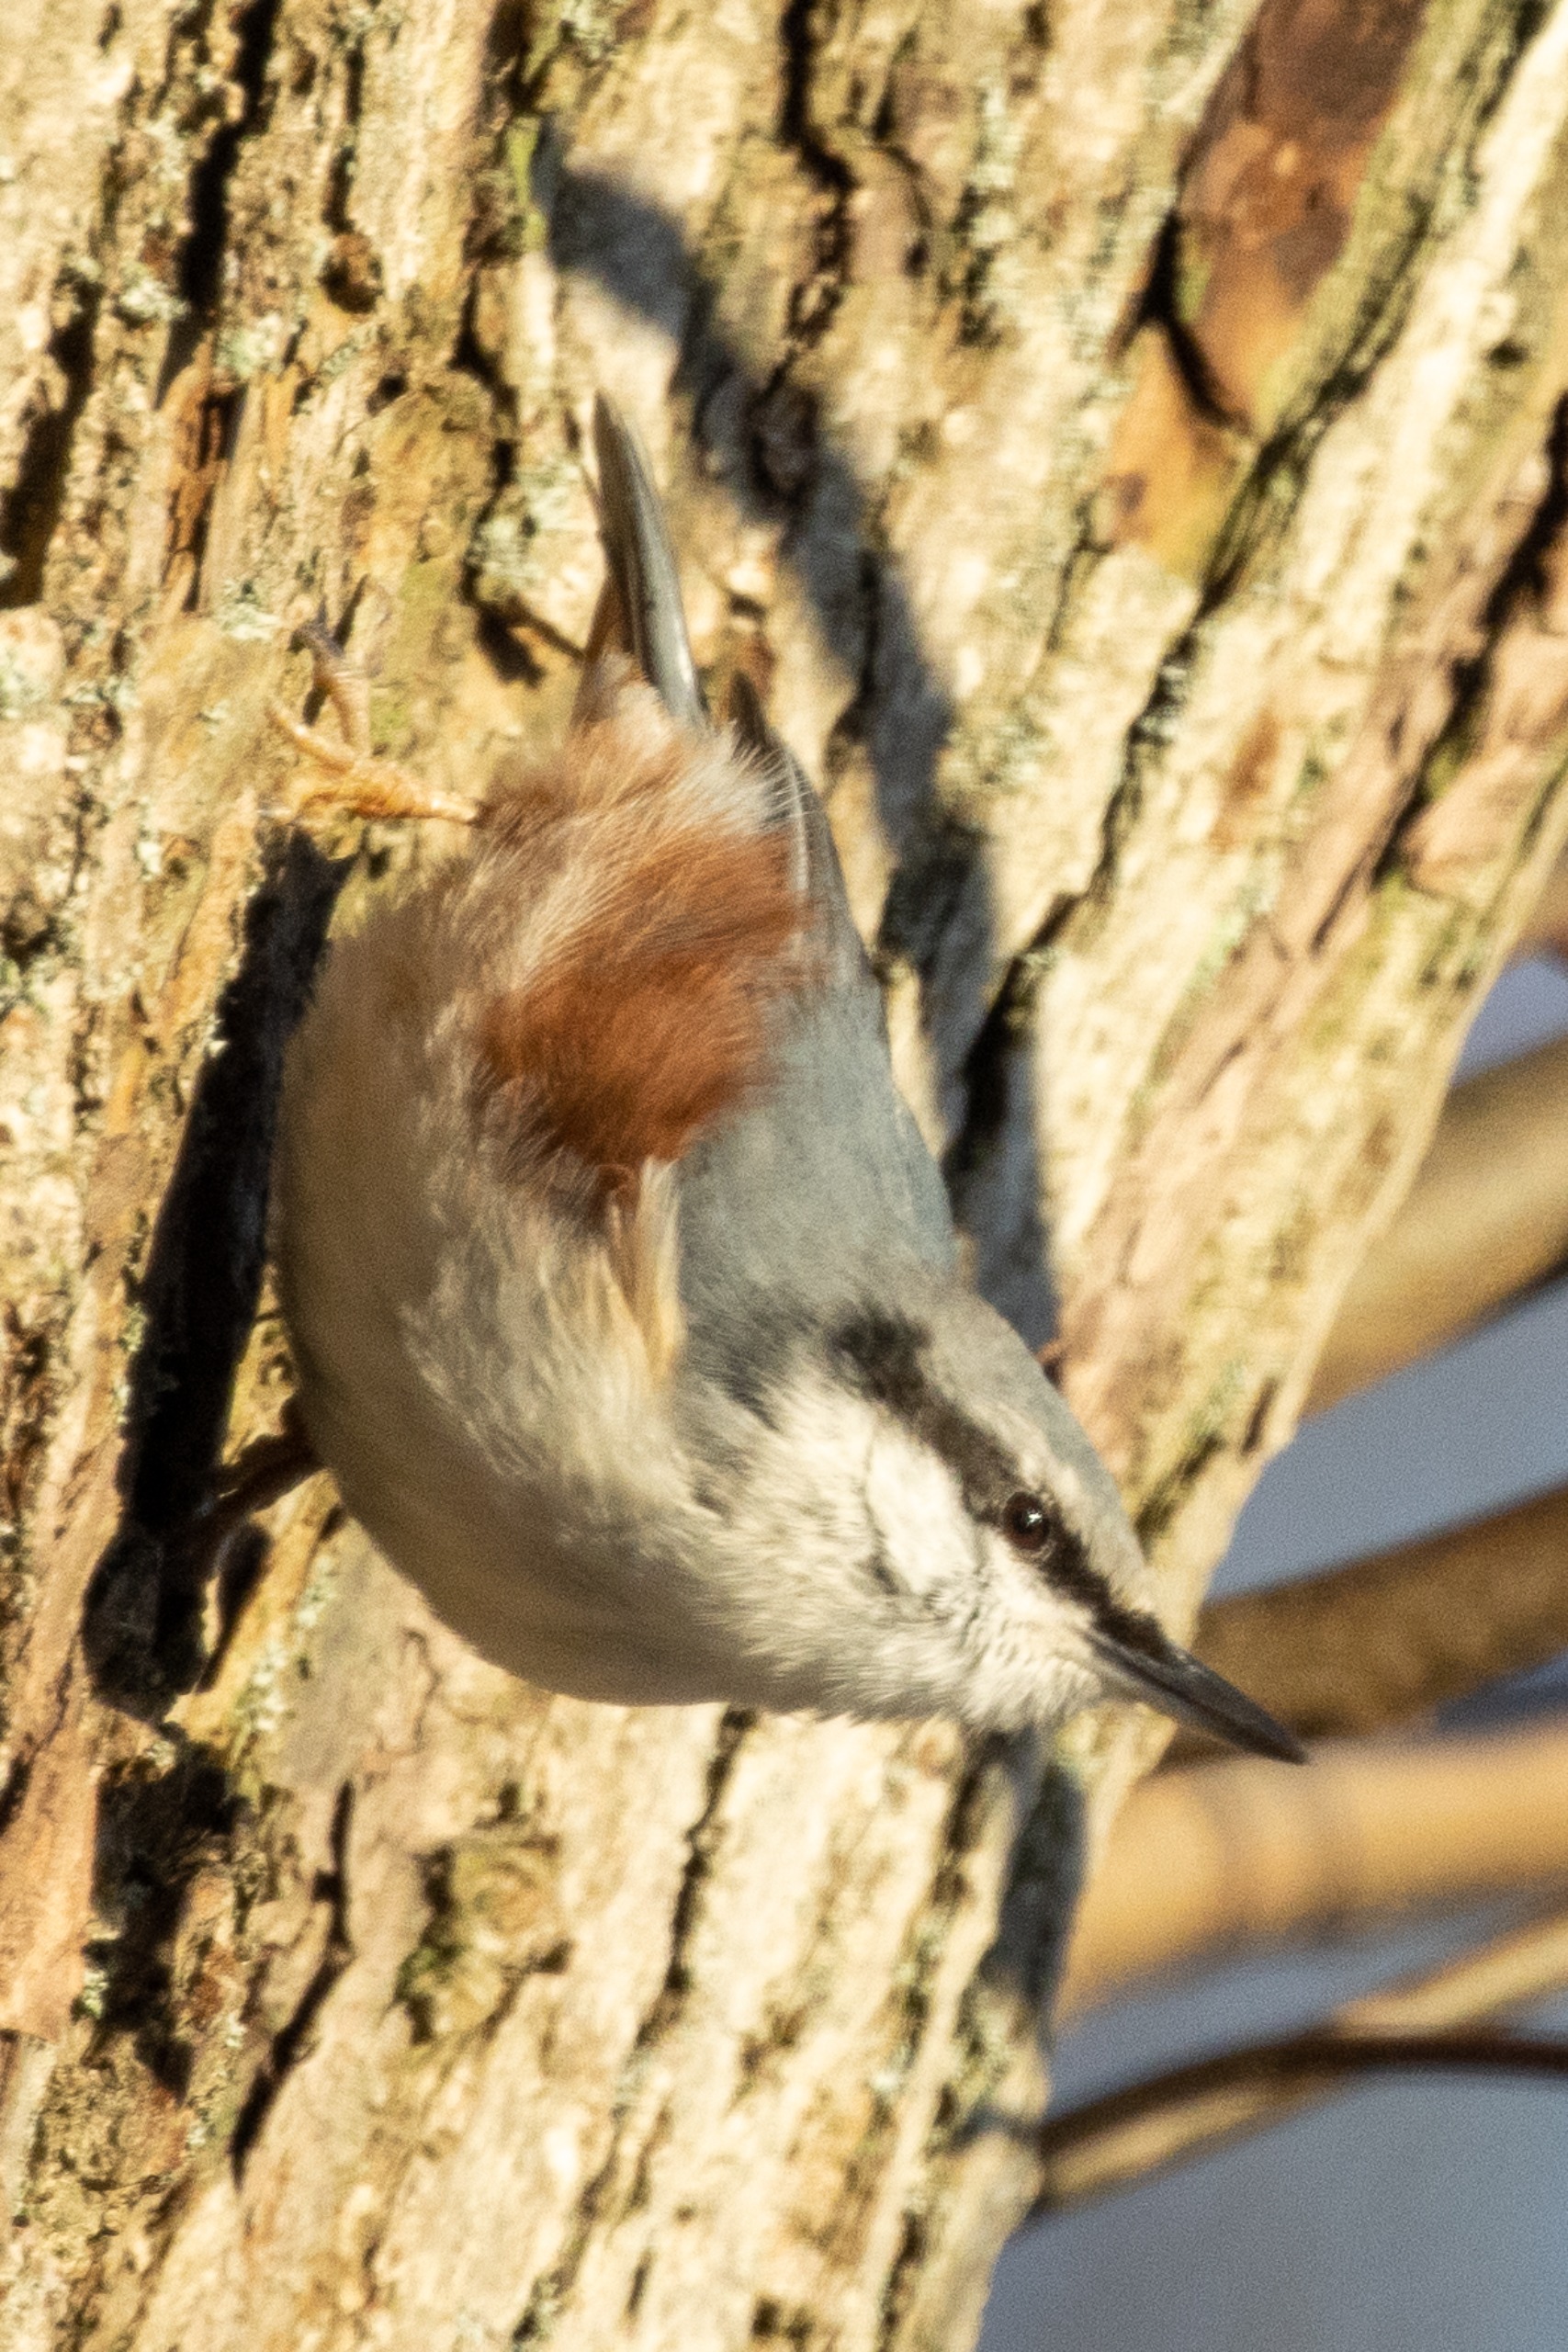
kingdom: Animalia
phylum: Chordata
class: Aves
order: Passeriformes
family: Sittidae
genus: Sitta
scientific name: Sitta europaea
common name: Spætmejse
